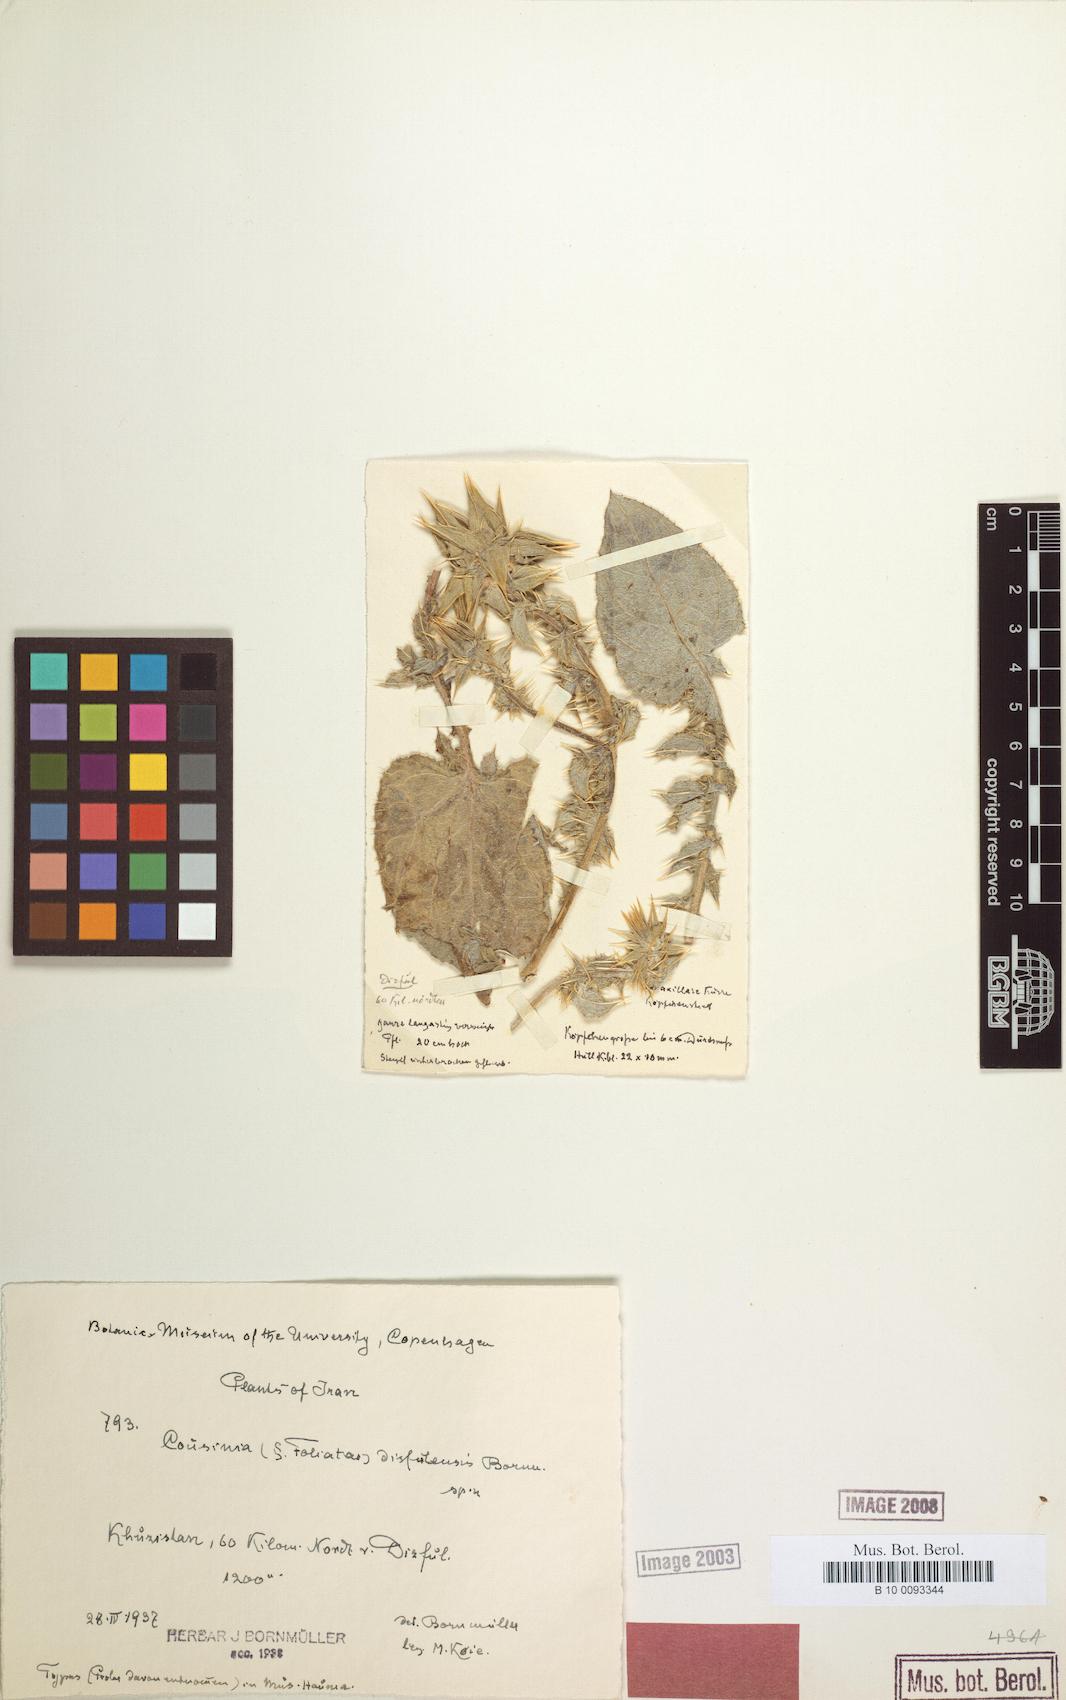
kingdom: Plantae
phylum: Tracheophyta
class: Magnoliopsida
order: Asterales
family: Asteraceae
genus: Cousinia
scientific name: Cousinia silyboides
